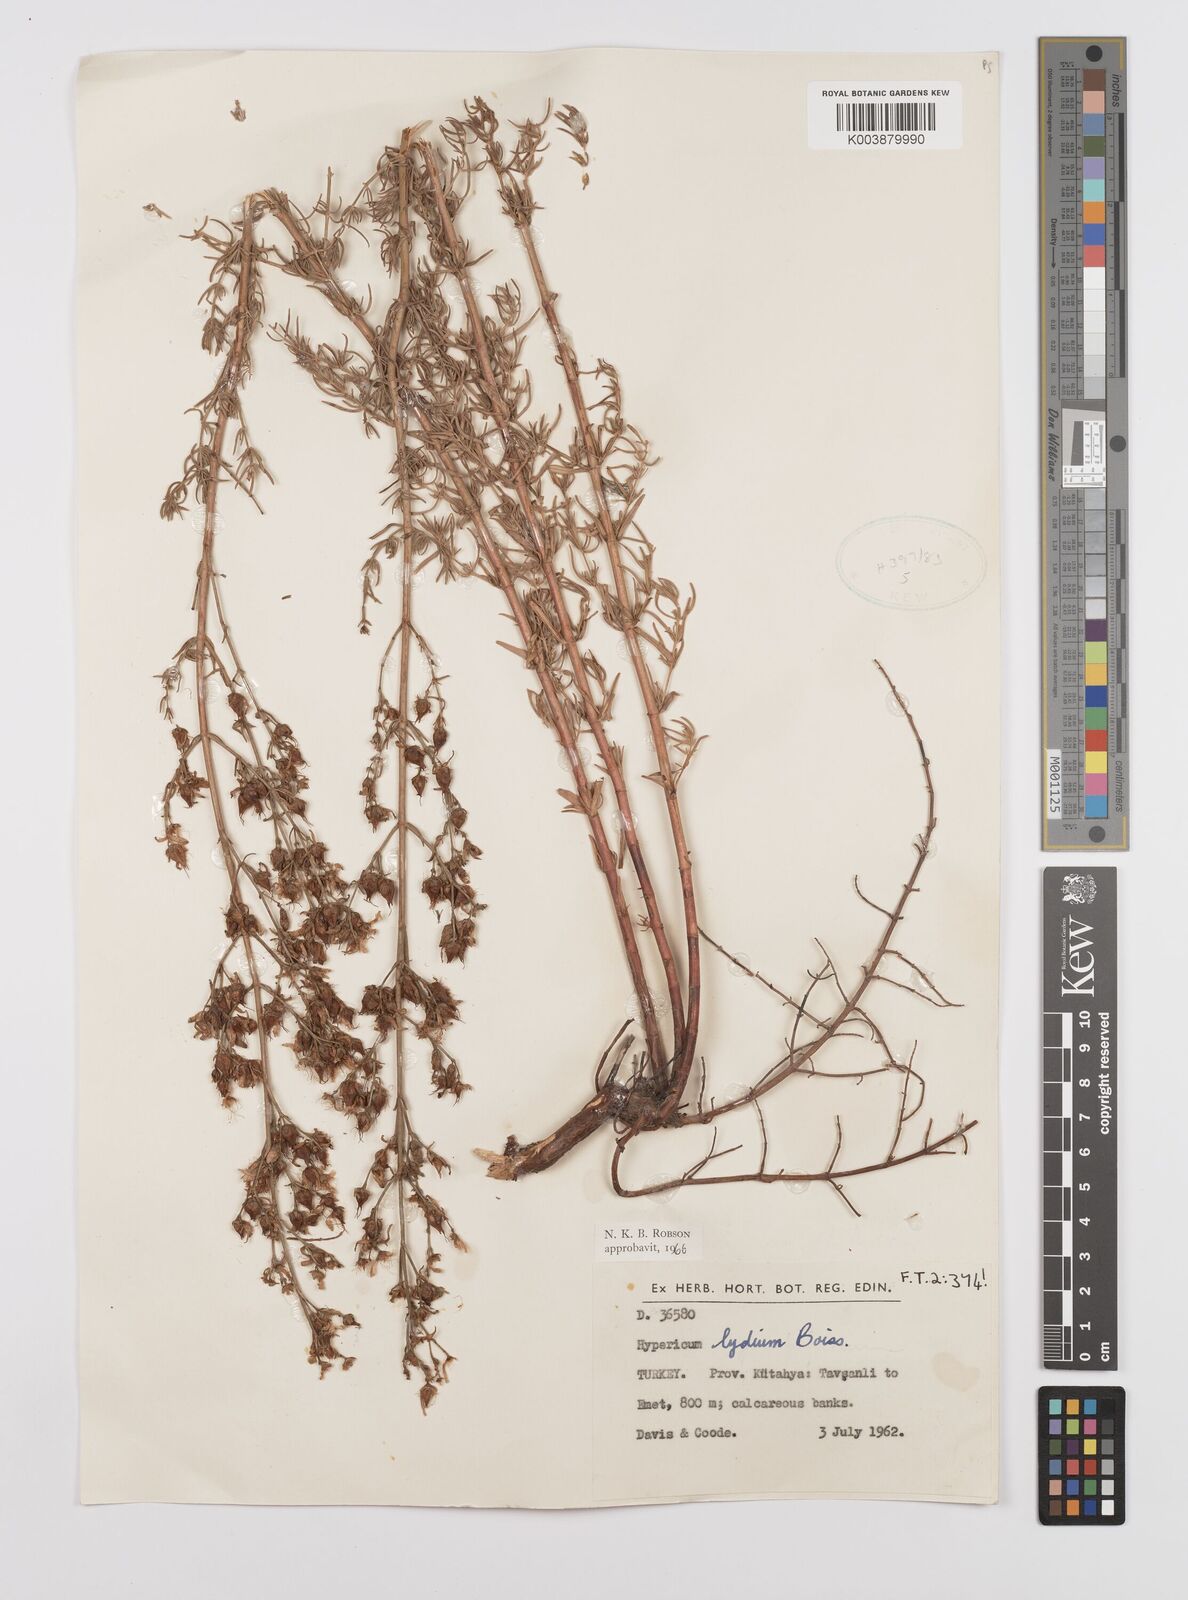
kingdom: Plantae
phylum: Tracheophyta
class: Magnoliopsida
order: Malpighiales
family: Hypericaceae
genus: Hypericum
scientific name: Hypericum lydium
